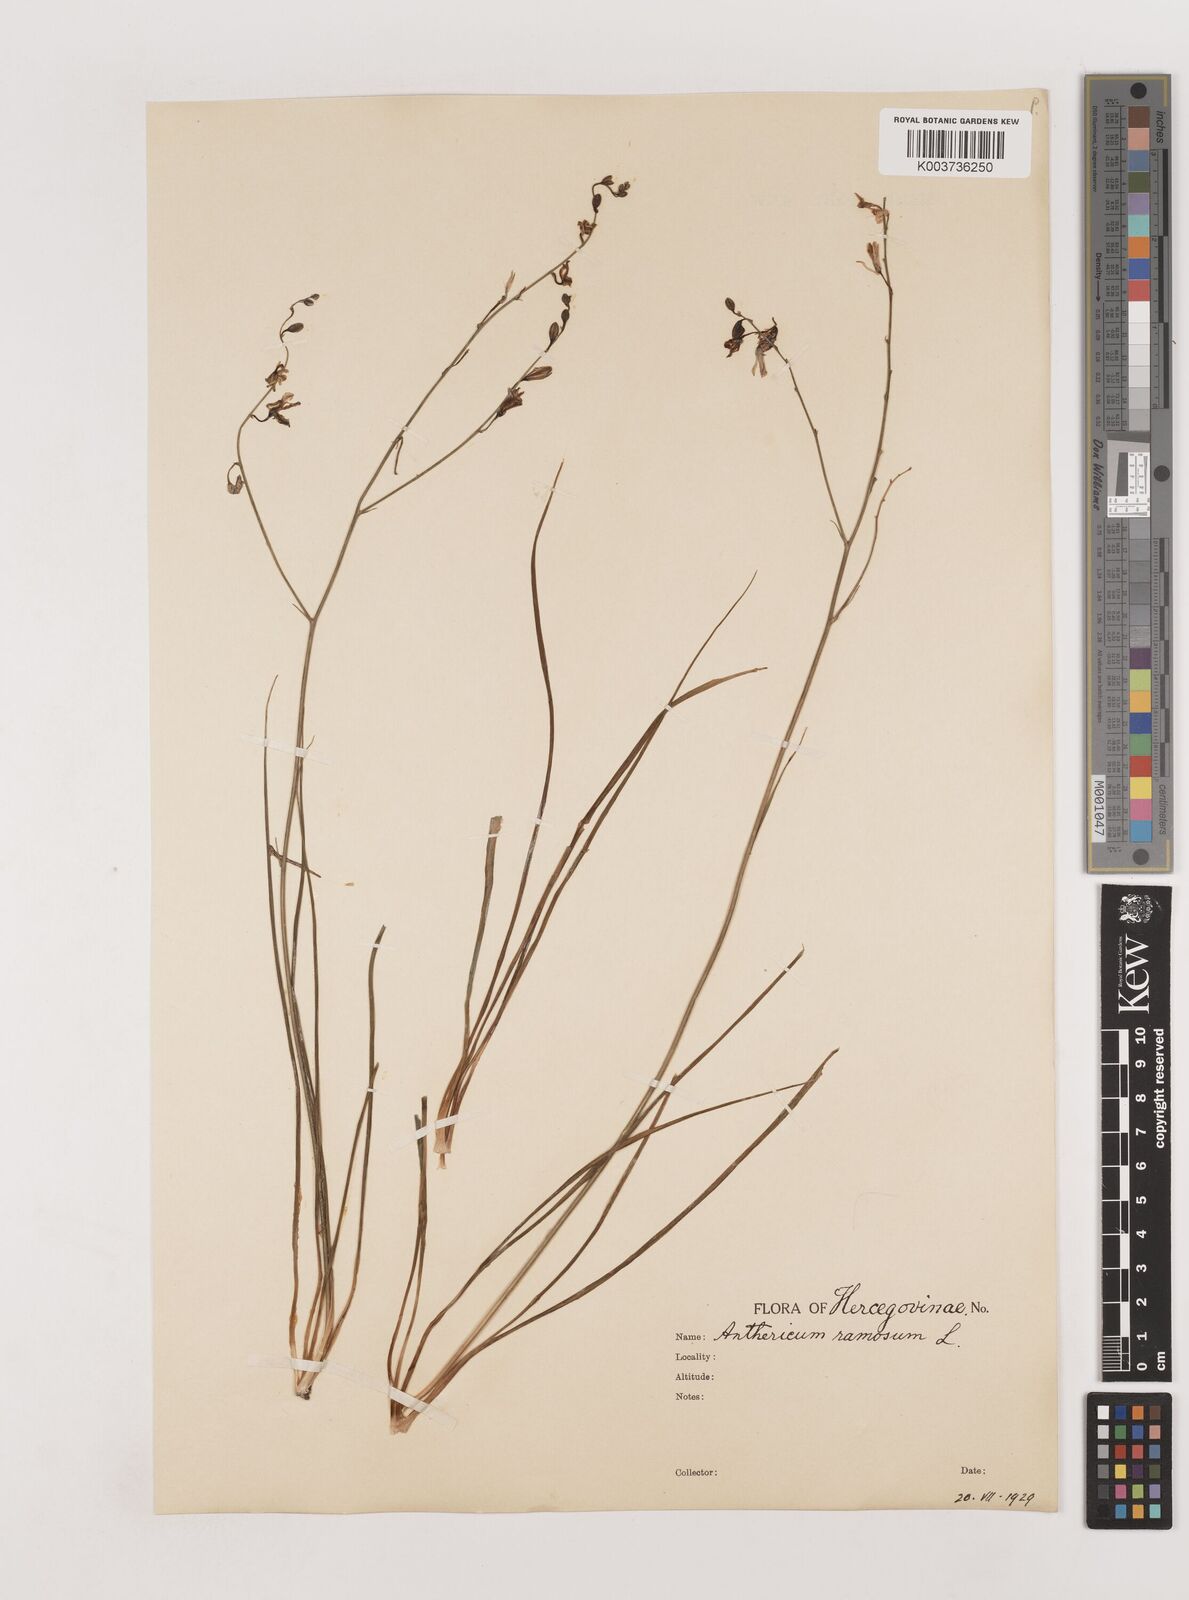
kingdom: Plantae
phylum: Tracheophyta
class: Liliopsida
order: Asparagales
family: Asparagaceae
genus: Anthericum
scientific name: Anthericum ramosum
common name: Branched st. bernard's-lily
